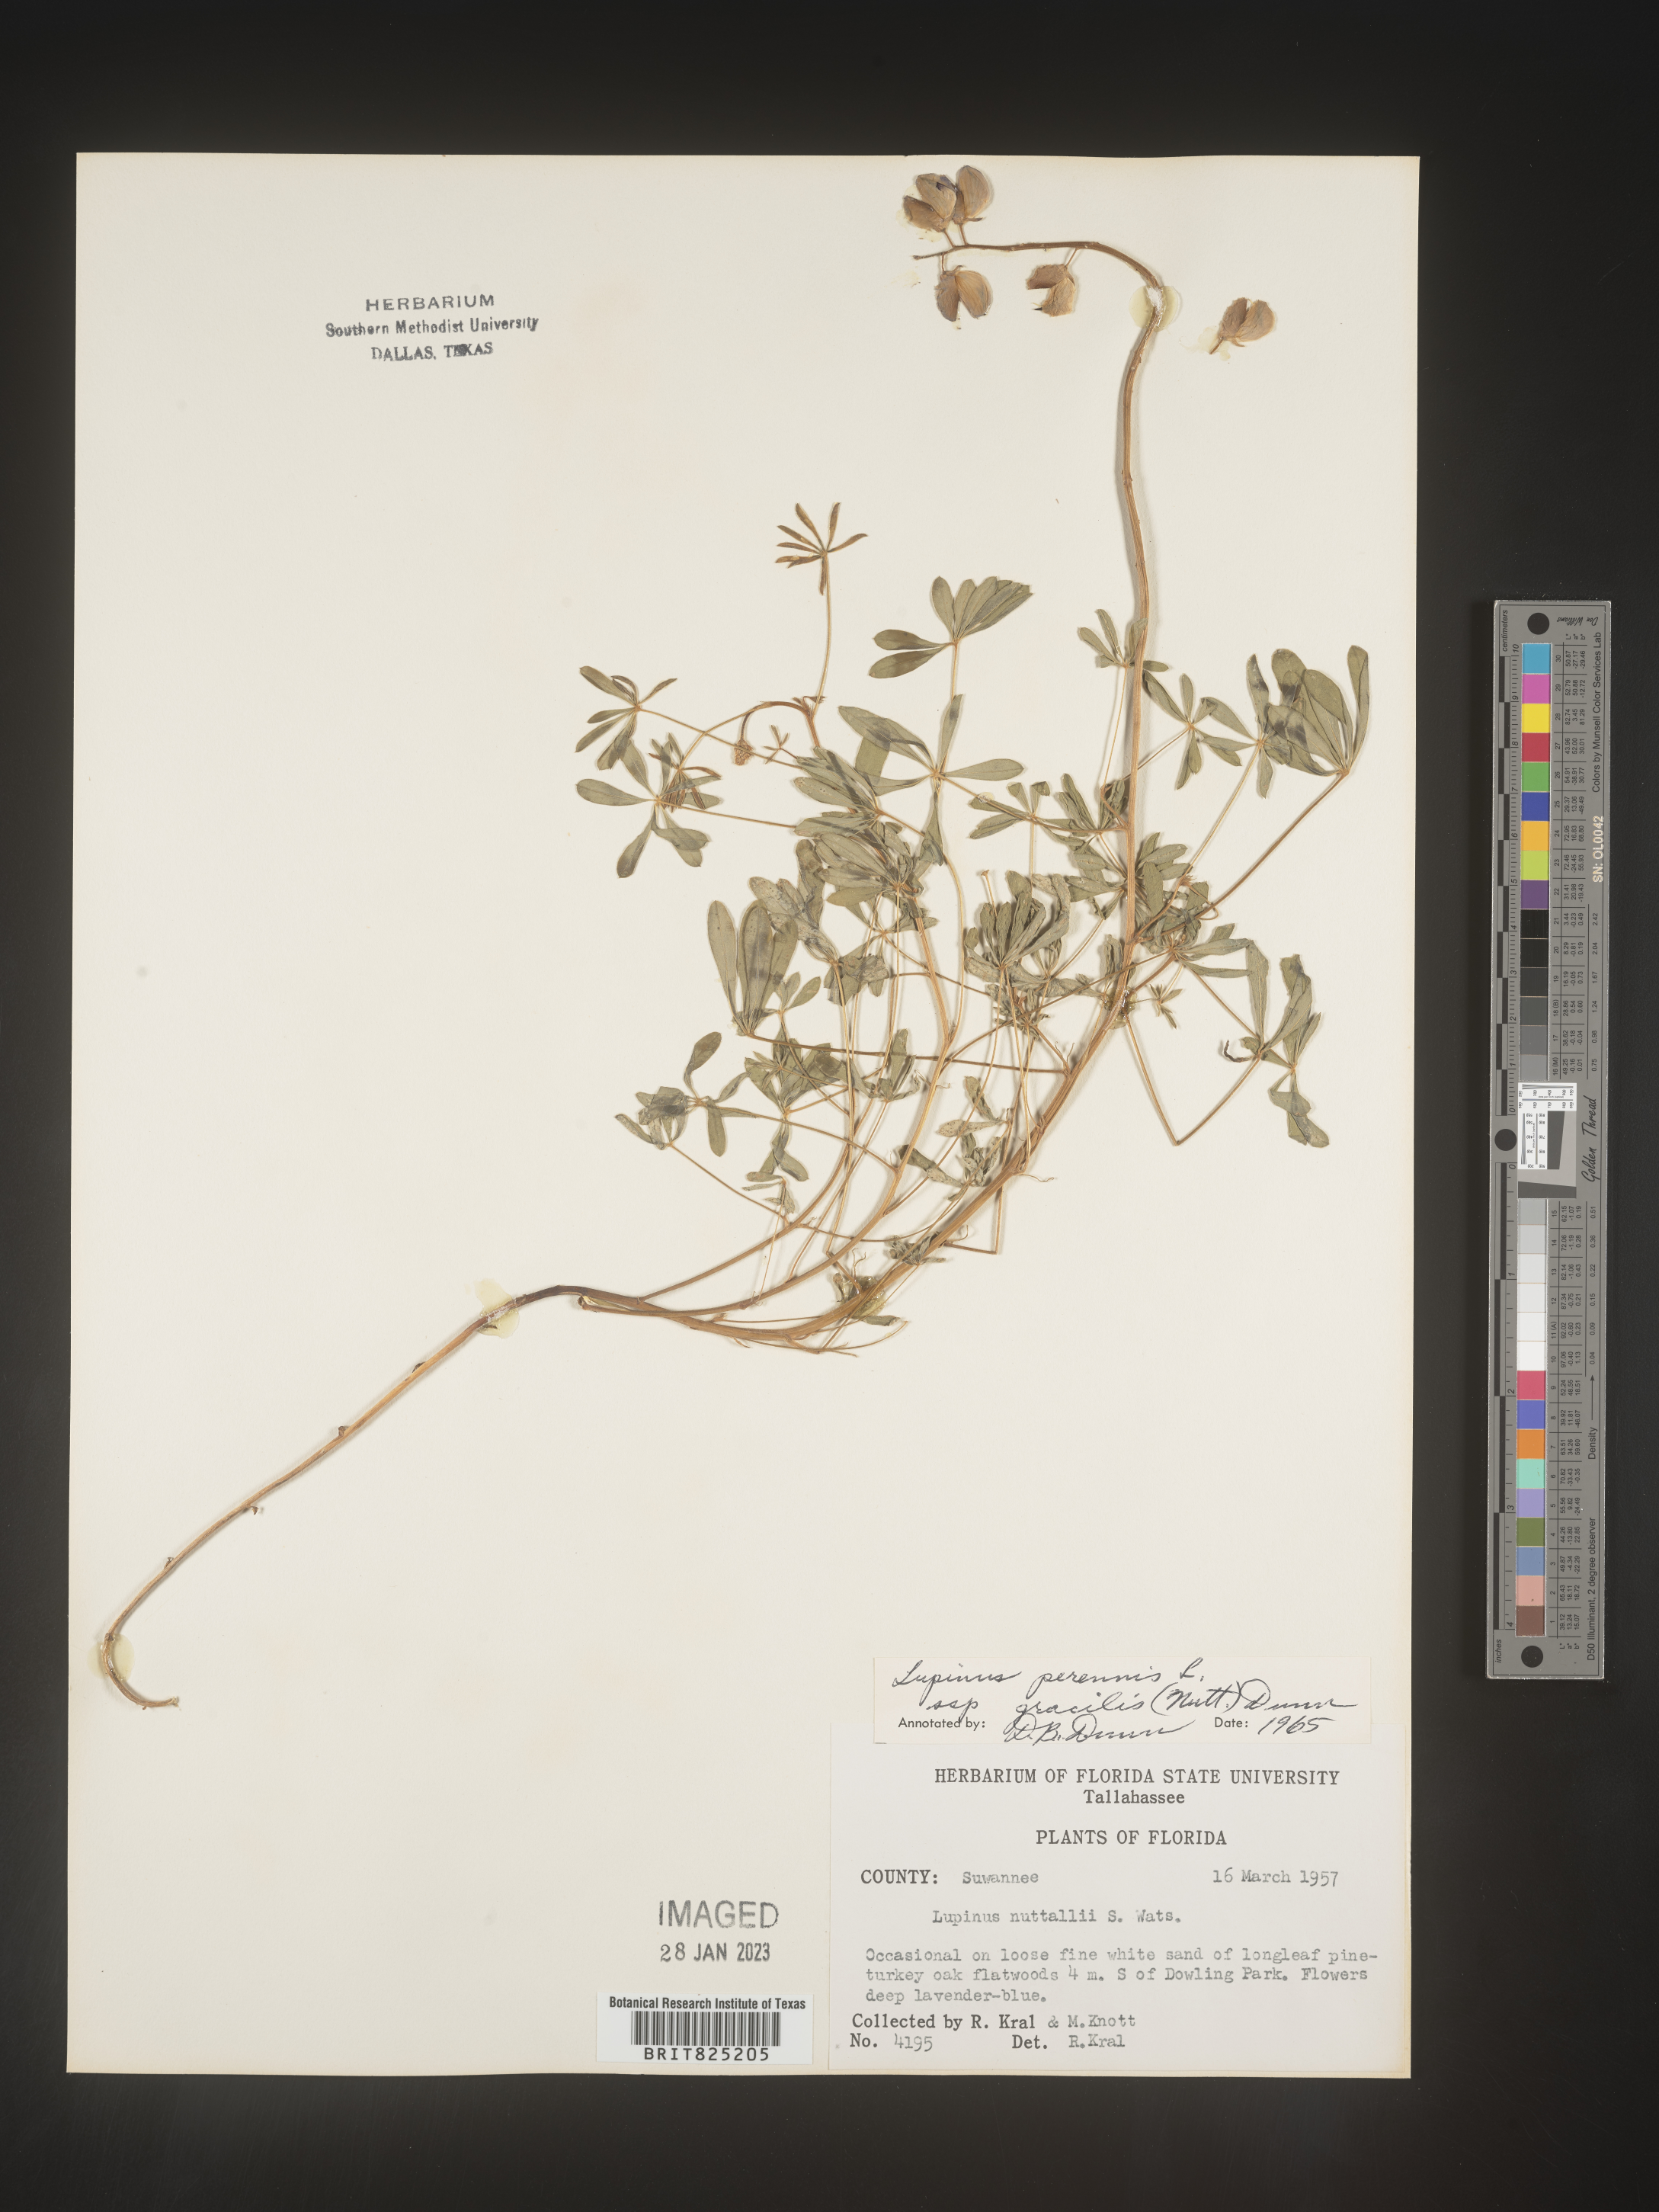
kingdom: Plantae
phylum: Tracheophyta
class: Magnoliopsida
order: Fabales
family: Fabaceae
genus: Lupinus
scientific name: Lupinus perennis
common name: Sundial lupine
